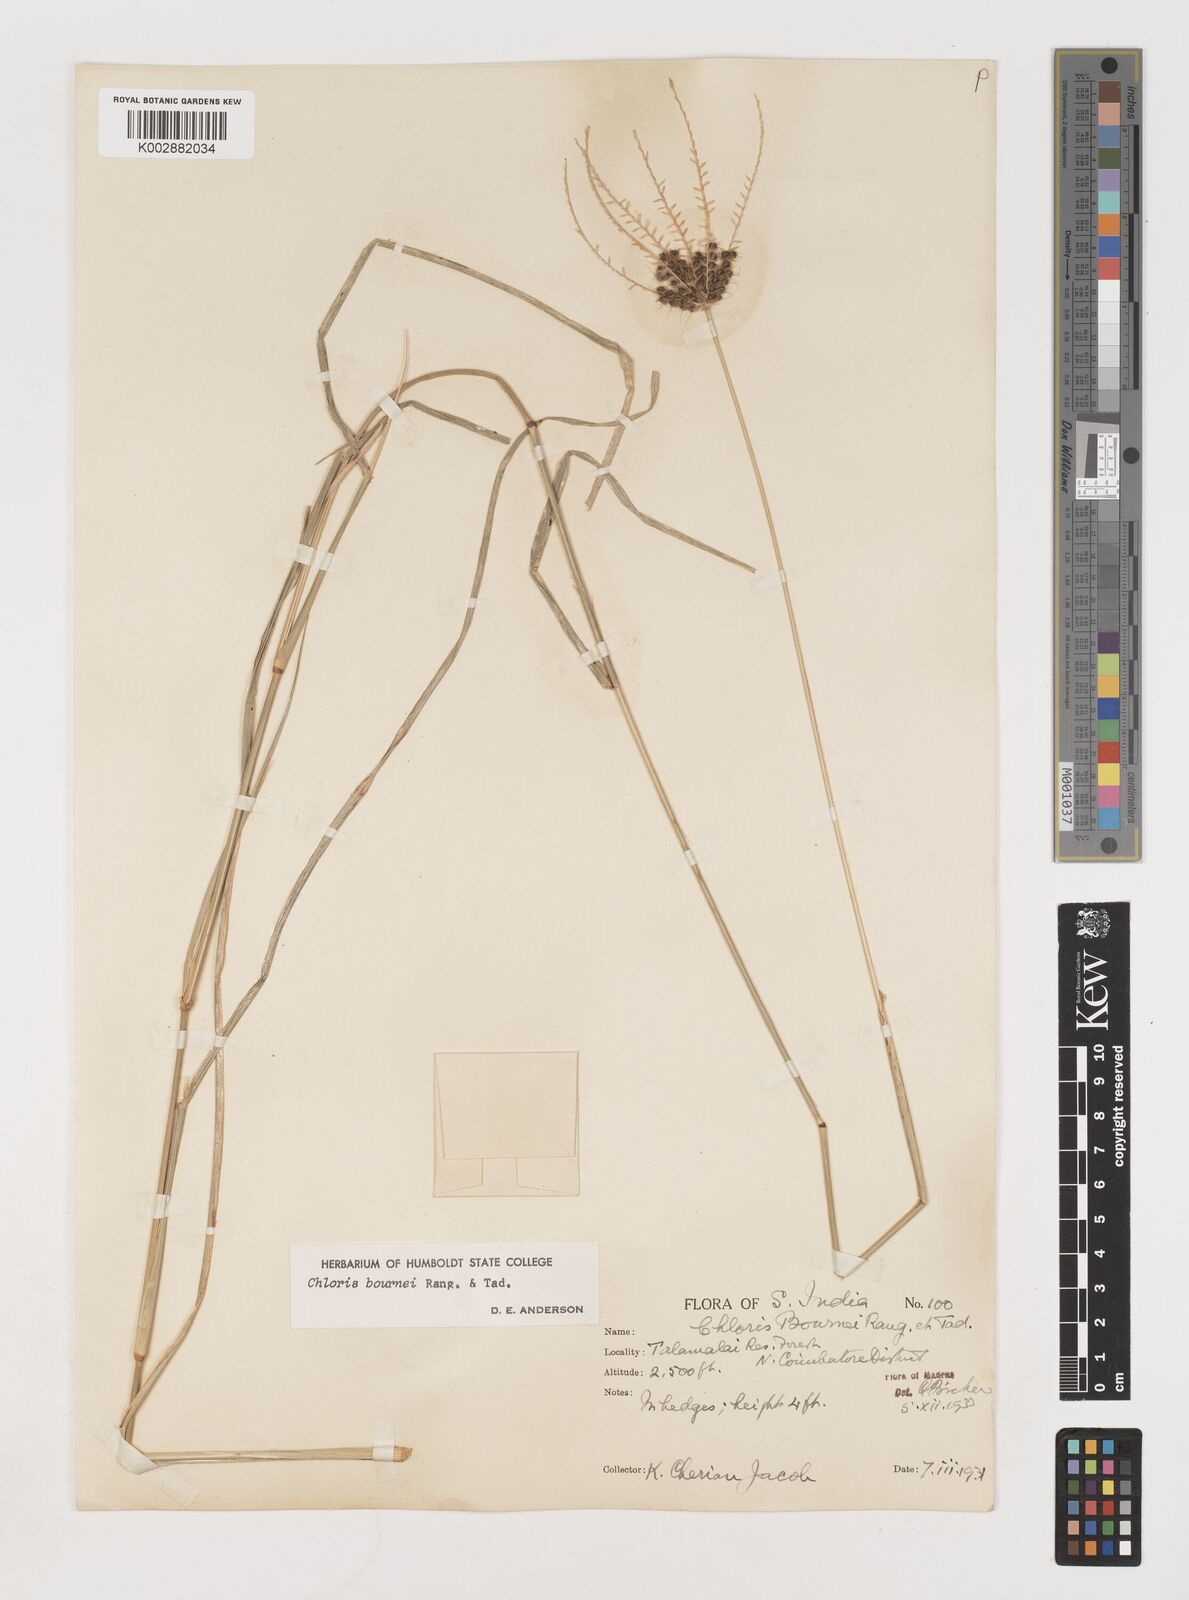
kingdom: Plantae
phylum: Tracheophyta
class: Liliopsida
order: Poales
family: Poaceae
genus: Chloris
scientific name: Chloris bournei
